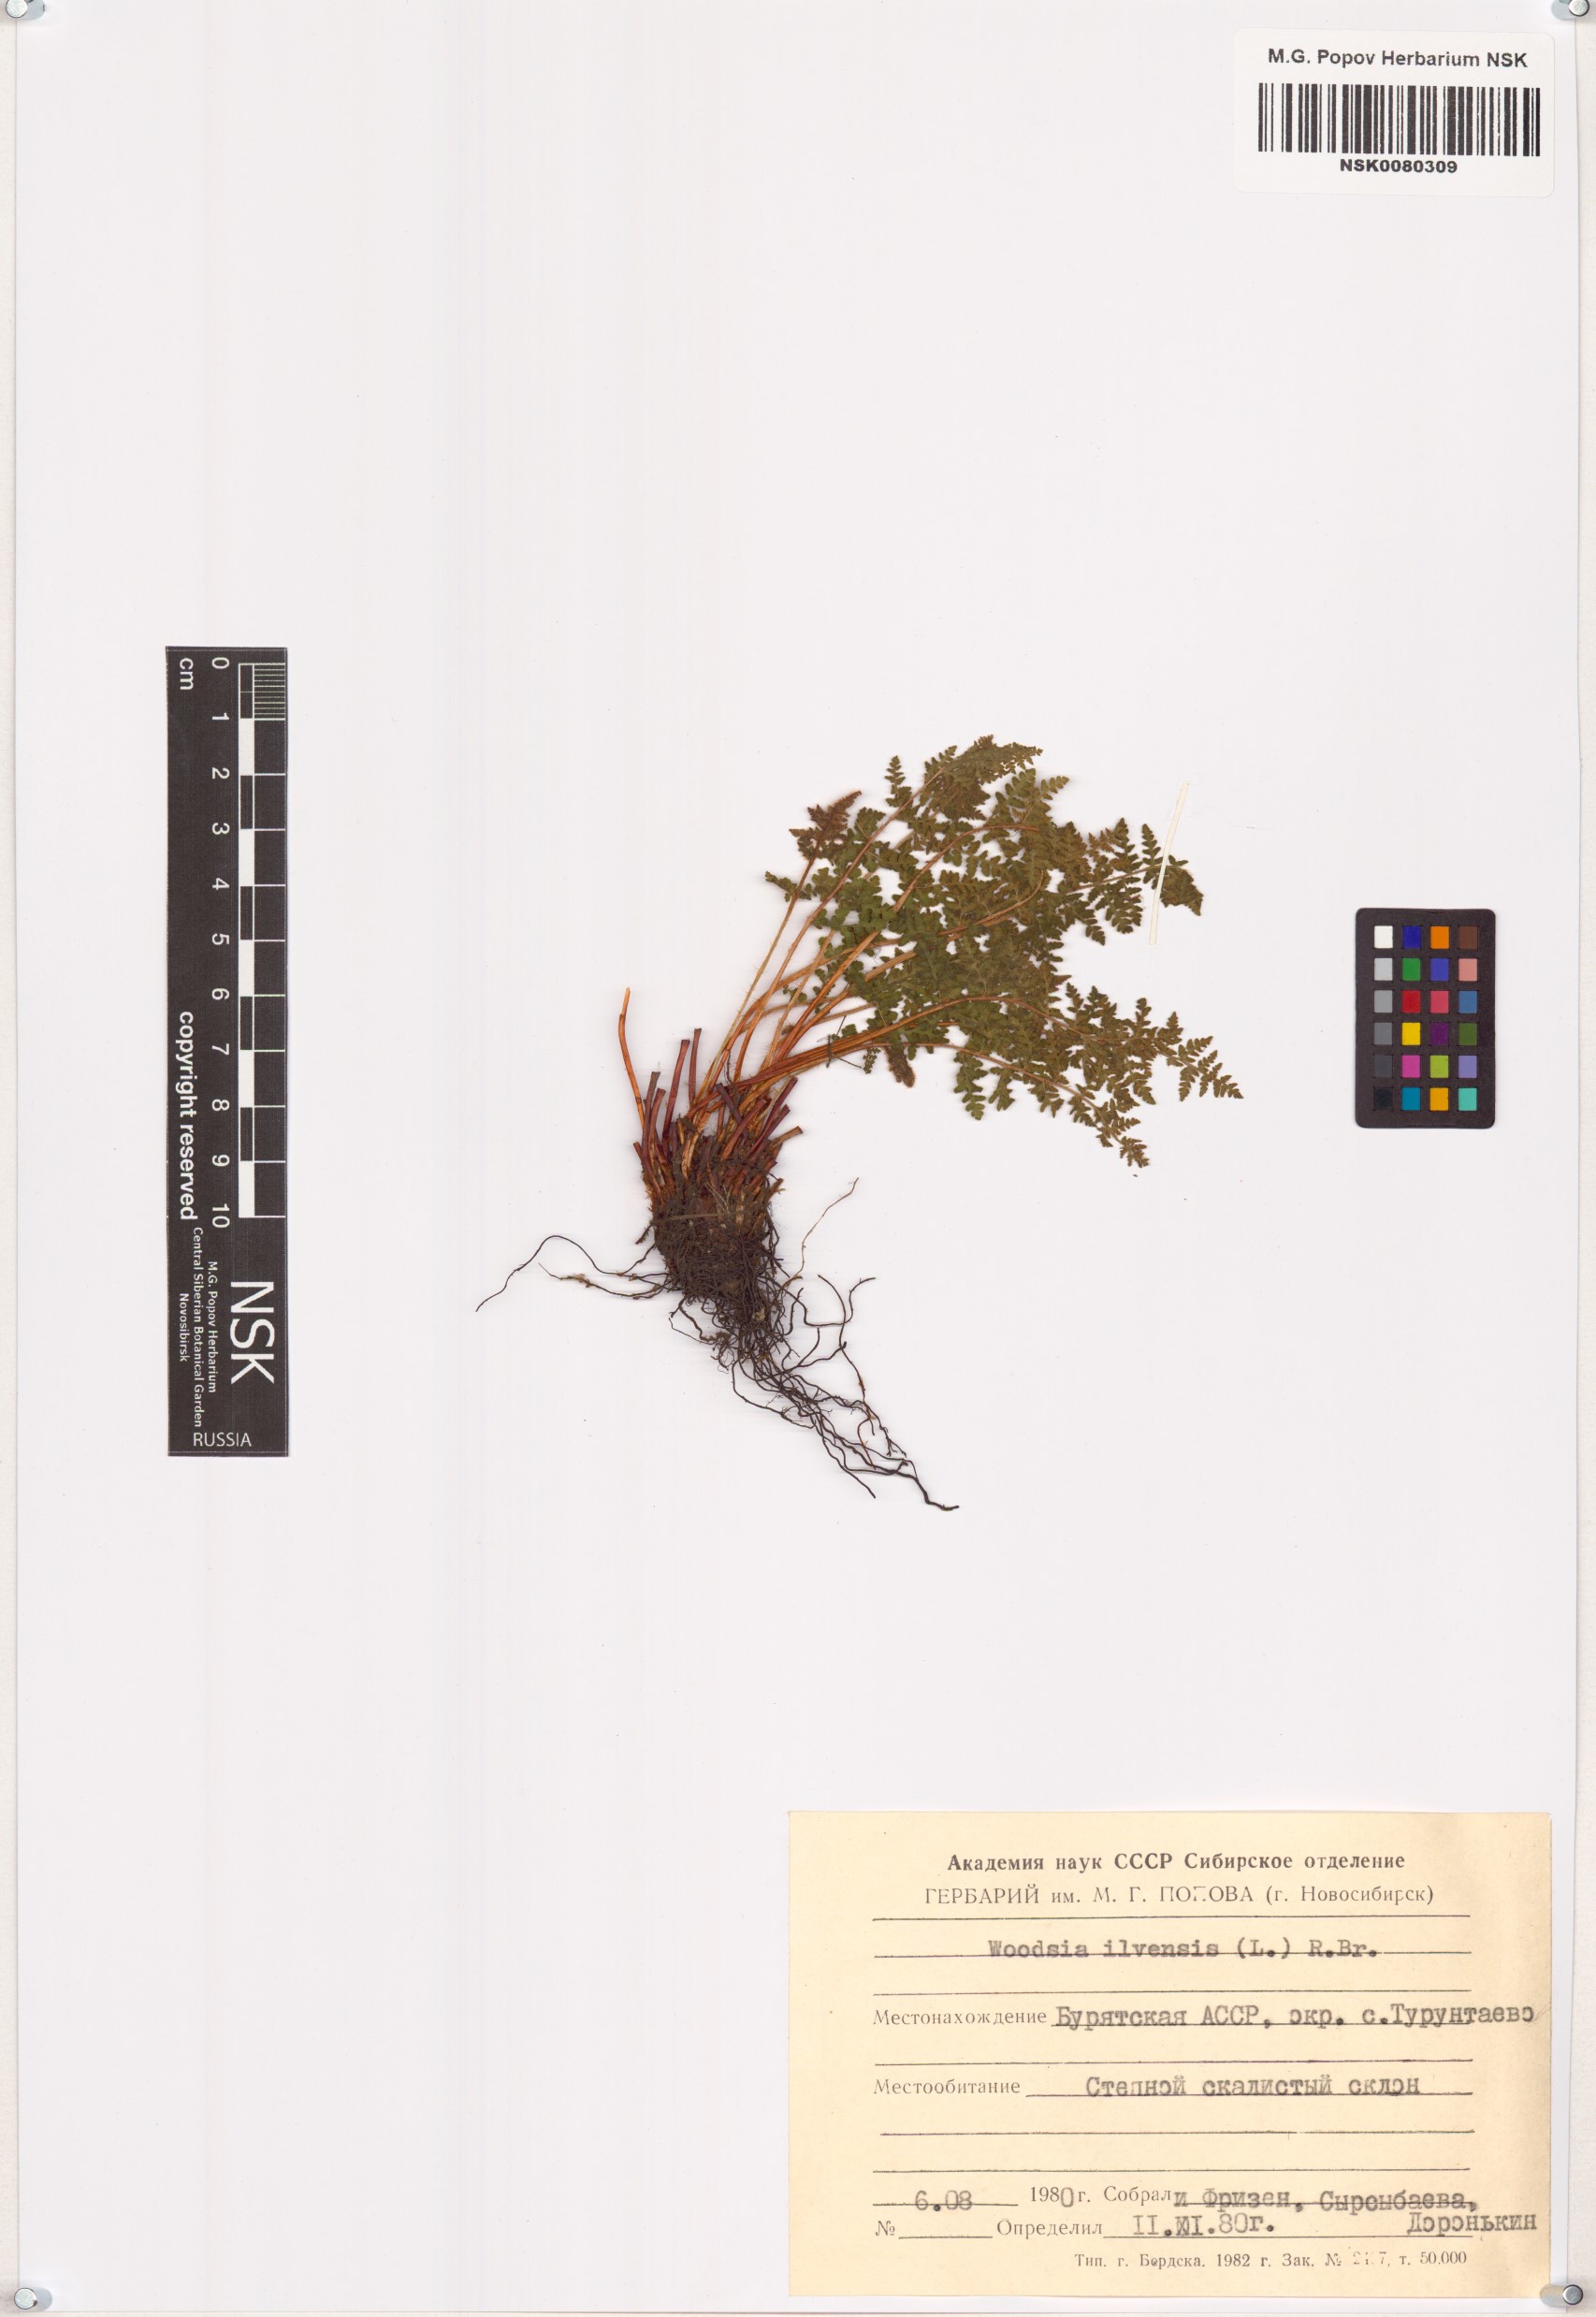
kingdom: Plantae
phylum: Tracheophyta
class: Polypodiopsida
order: Polypodiales
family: Woodsiaceae
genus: Woodsia
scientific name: Woodsia ilvensis
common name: Fragrant woodsia
